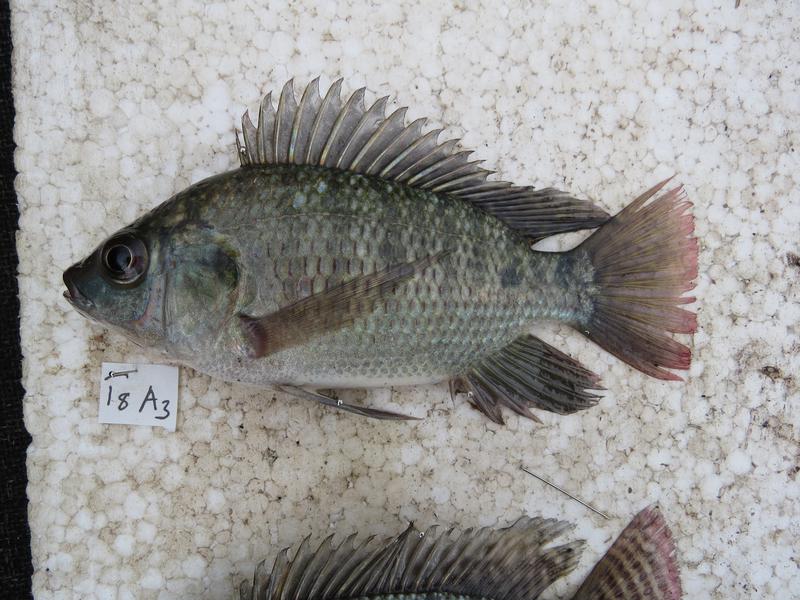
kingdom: Animalia
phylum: Chordata
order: Perciformes
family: Cichlidae
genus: Oreochromis
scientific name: Oreochromis niloticus
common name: Nile tilapia
